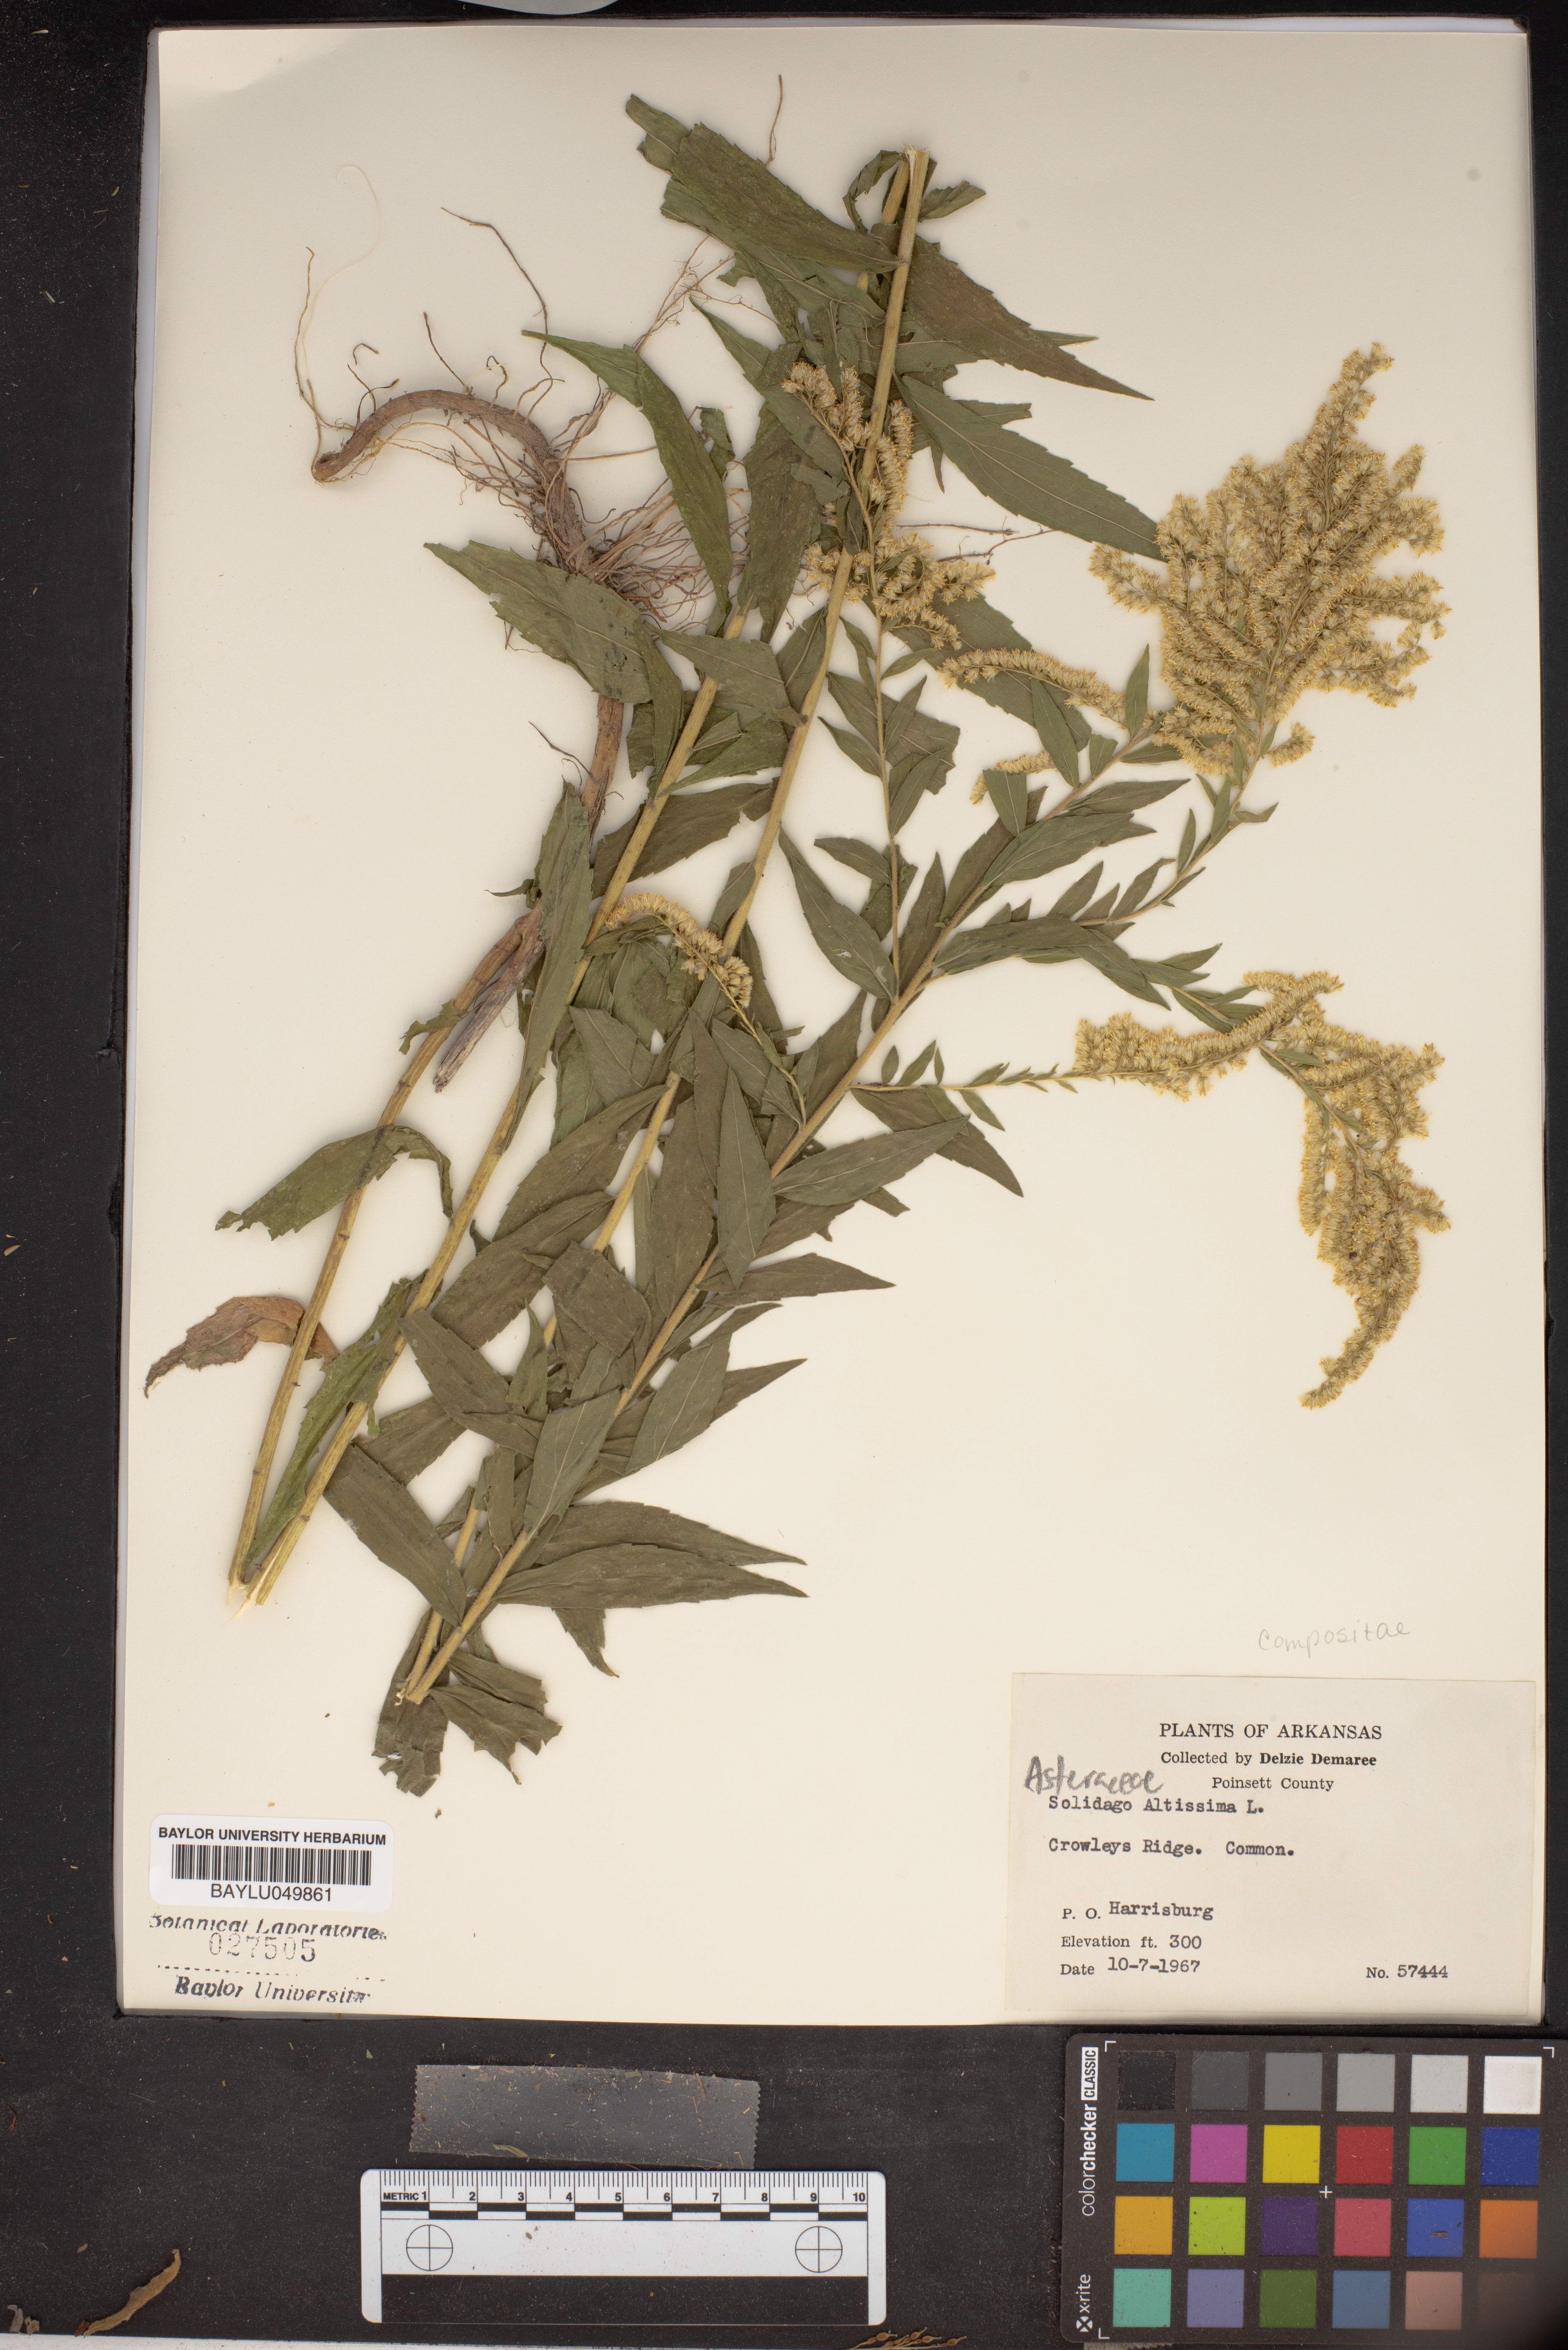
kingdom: Plantae
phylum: Tracheophyta
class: Magnoliopsida
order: Asterales
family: Asteraceae
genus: Solidago
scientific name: Solidago altissima
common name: Late goldenrod
